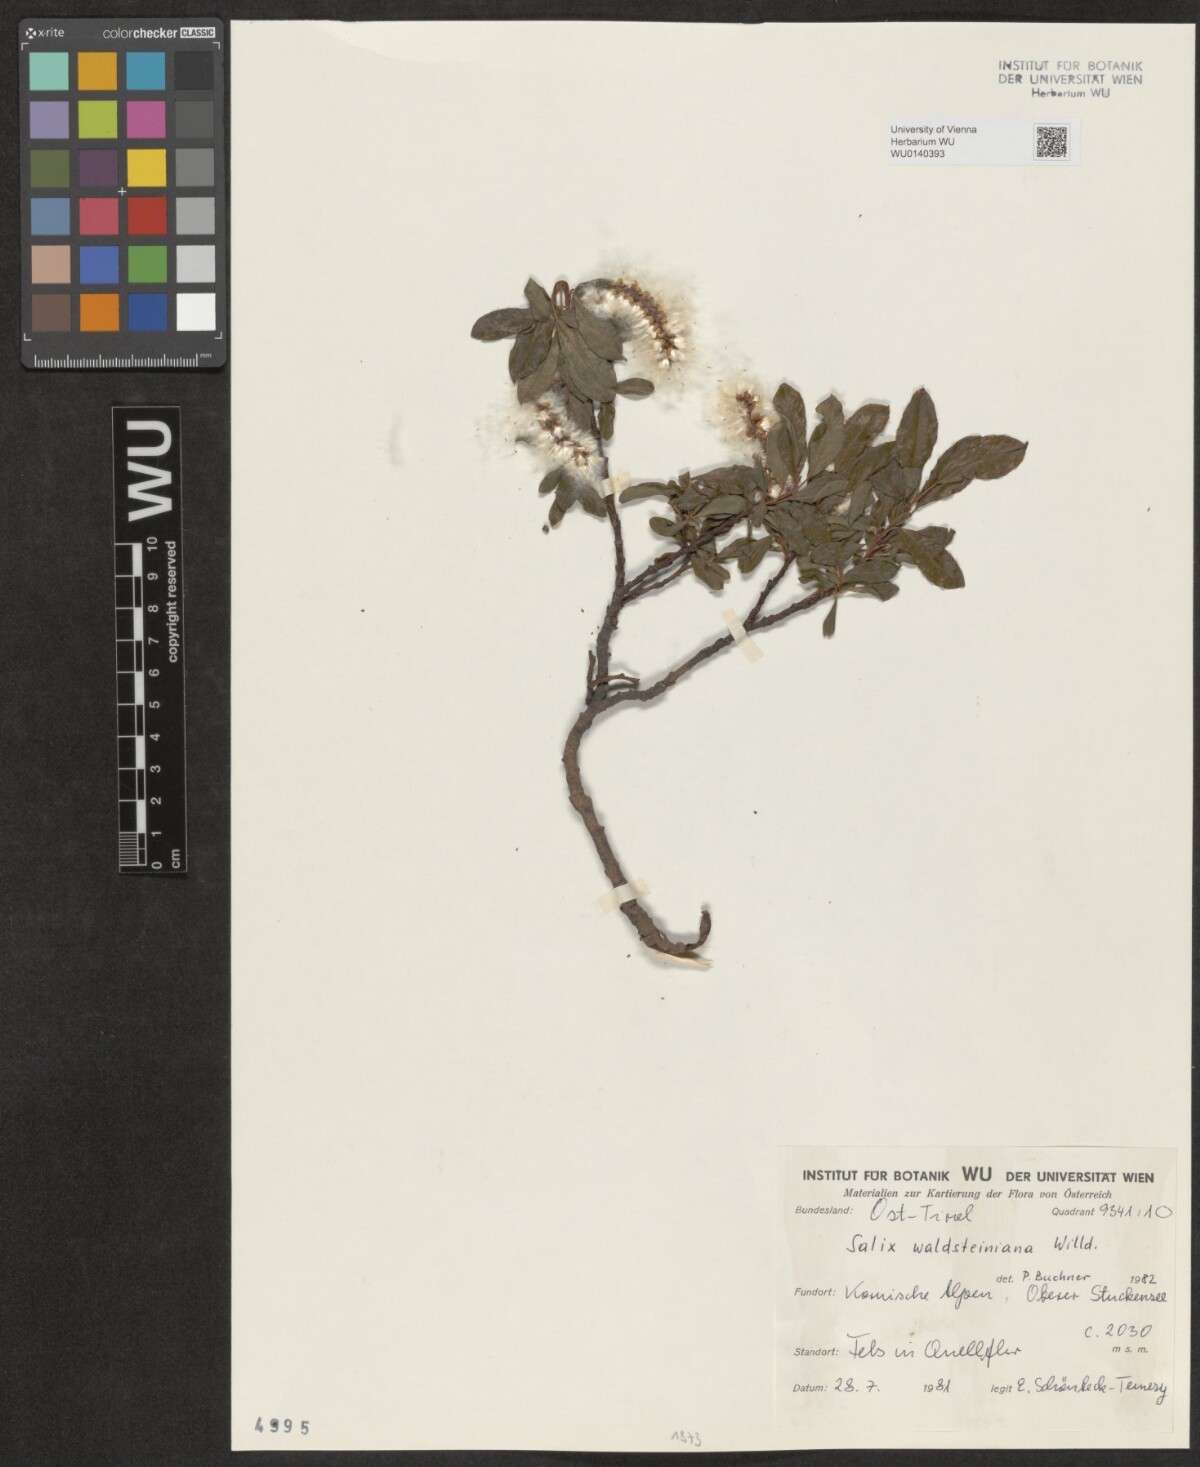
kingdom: Plantae
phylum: Tracheophyta
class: Magnoliopsida
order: Malpighiales
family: Salicaceae
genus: Salix
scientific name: Salix waldsteiniana
